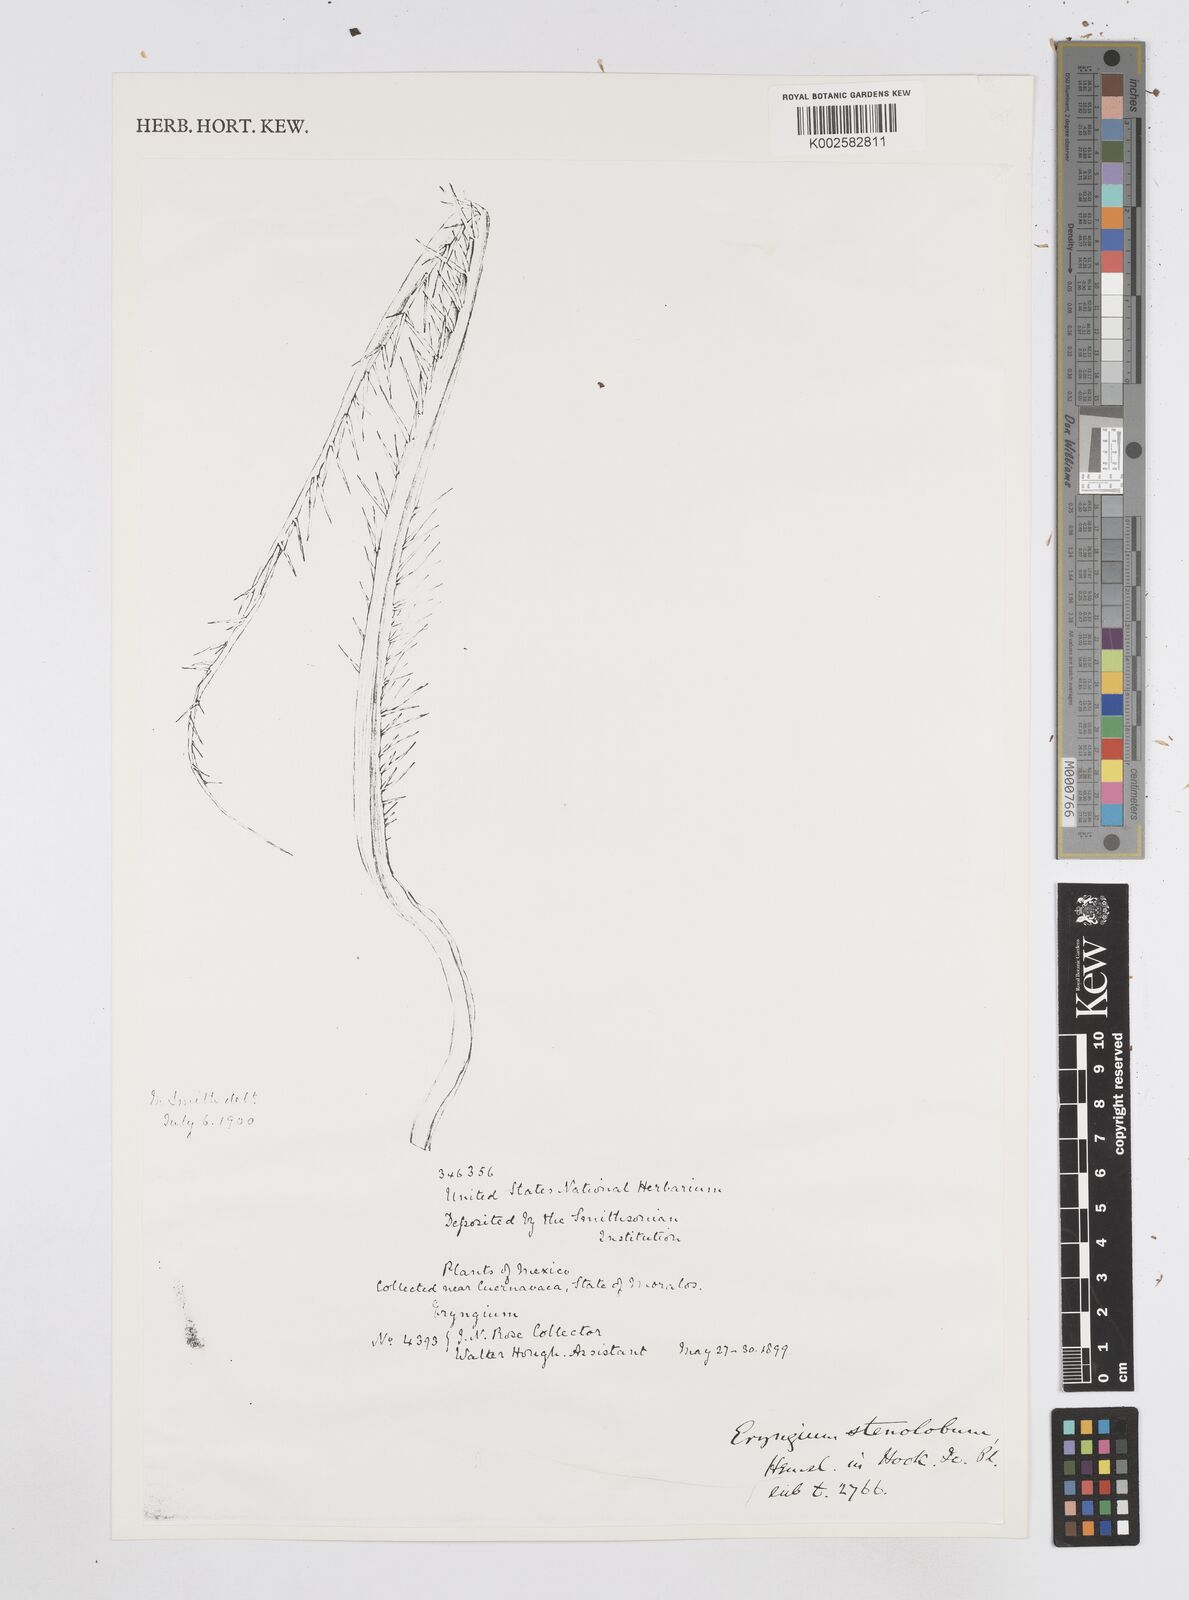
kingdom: Plantae
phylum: Tracheophyta
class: Magnoliopsida
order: Apiales
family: Apiaceae
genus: Eryngium
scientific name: Eryngium pectinatum
